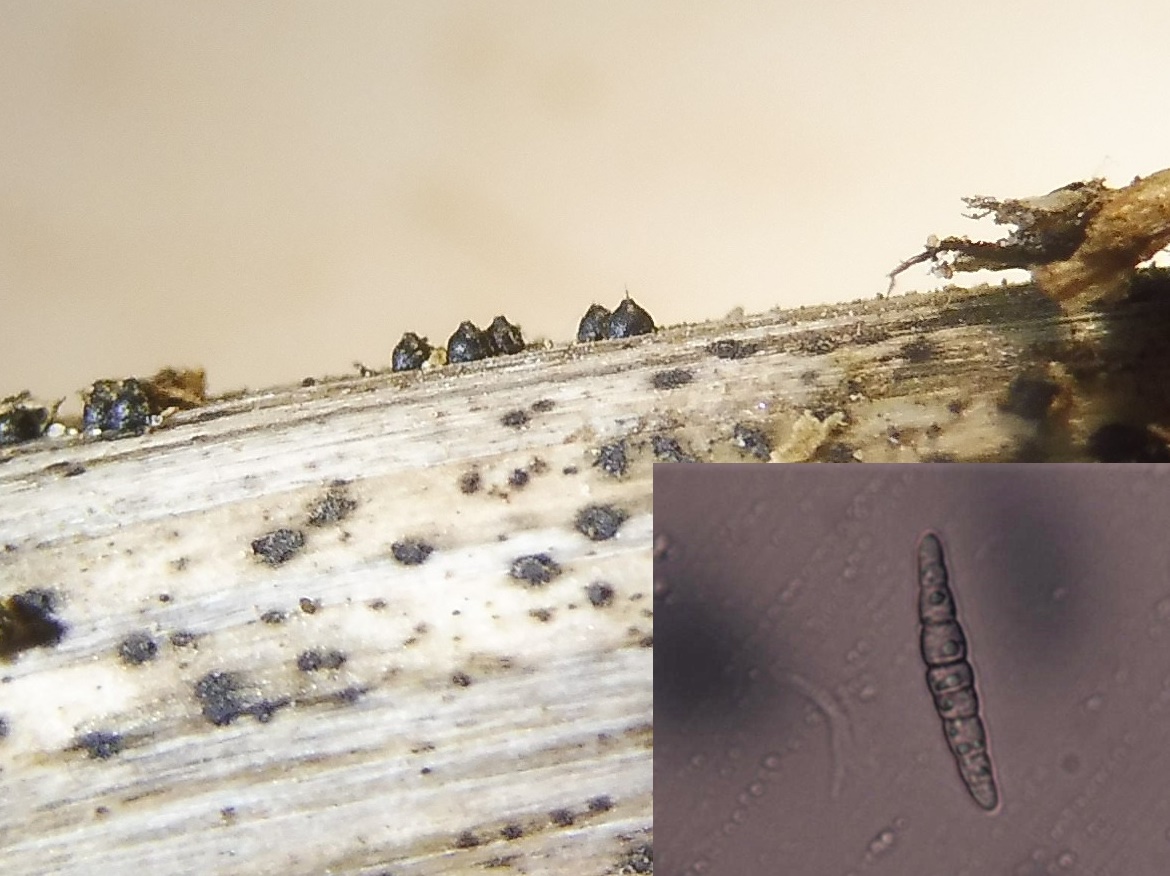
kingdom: Fungi
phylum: Ascomycota
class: Dothideomycetes
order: Pleosporales
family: Leptosphaeriaceae
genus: Leptosphaeria
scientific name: Leptosphaeria acuta
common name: spids kulkegle
